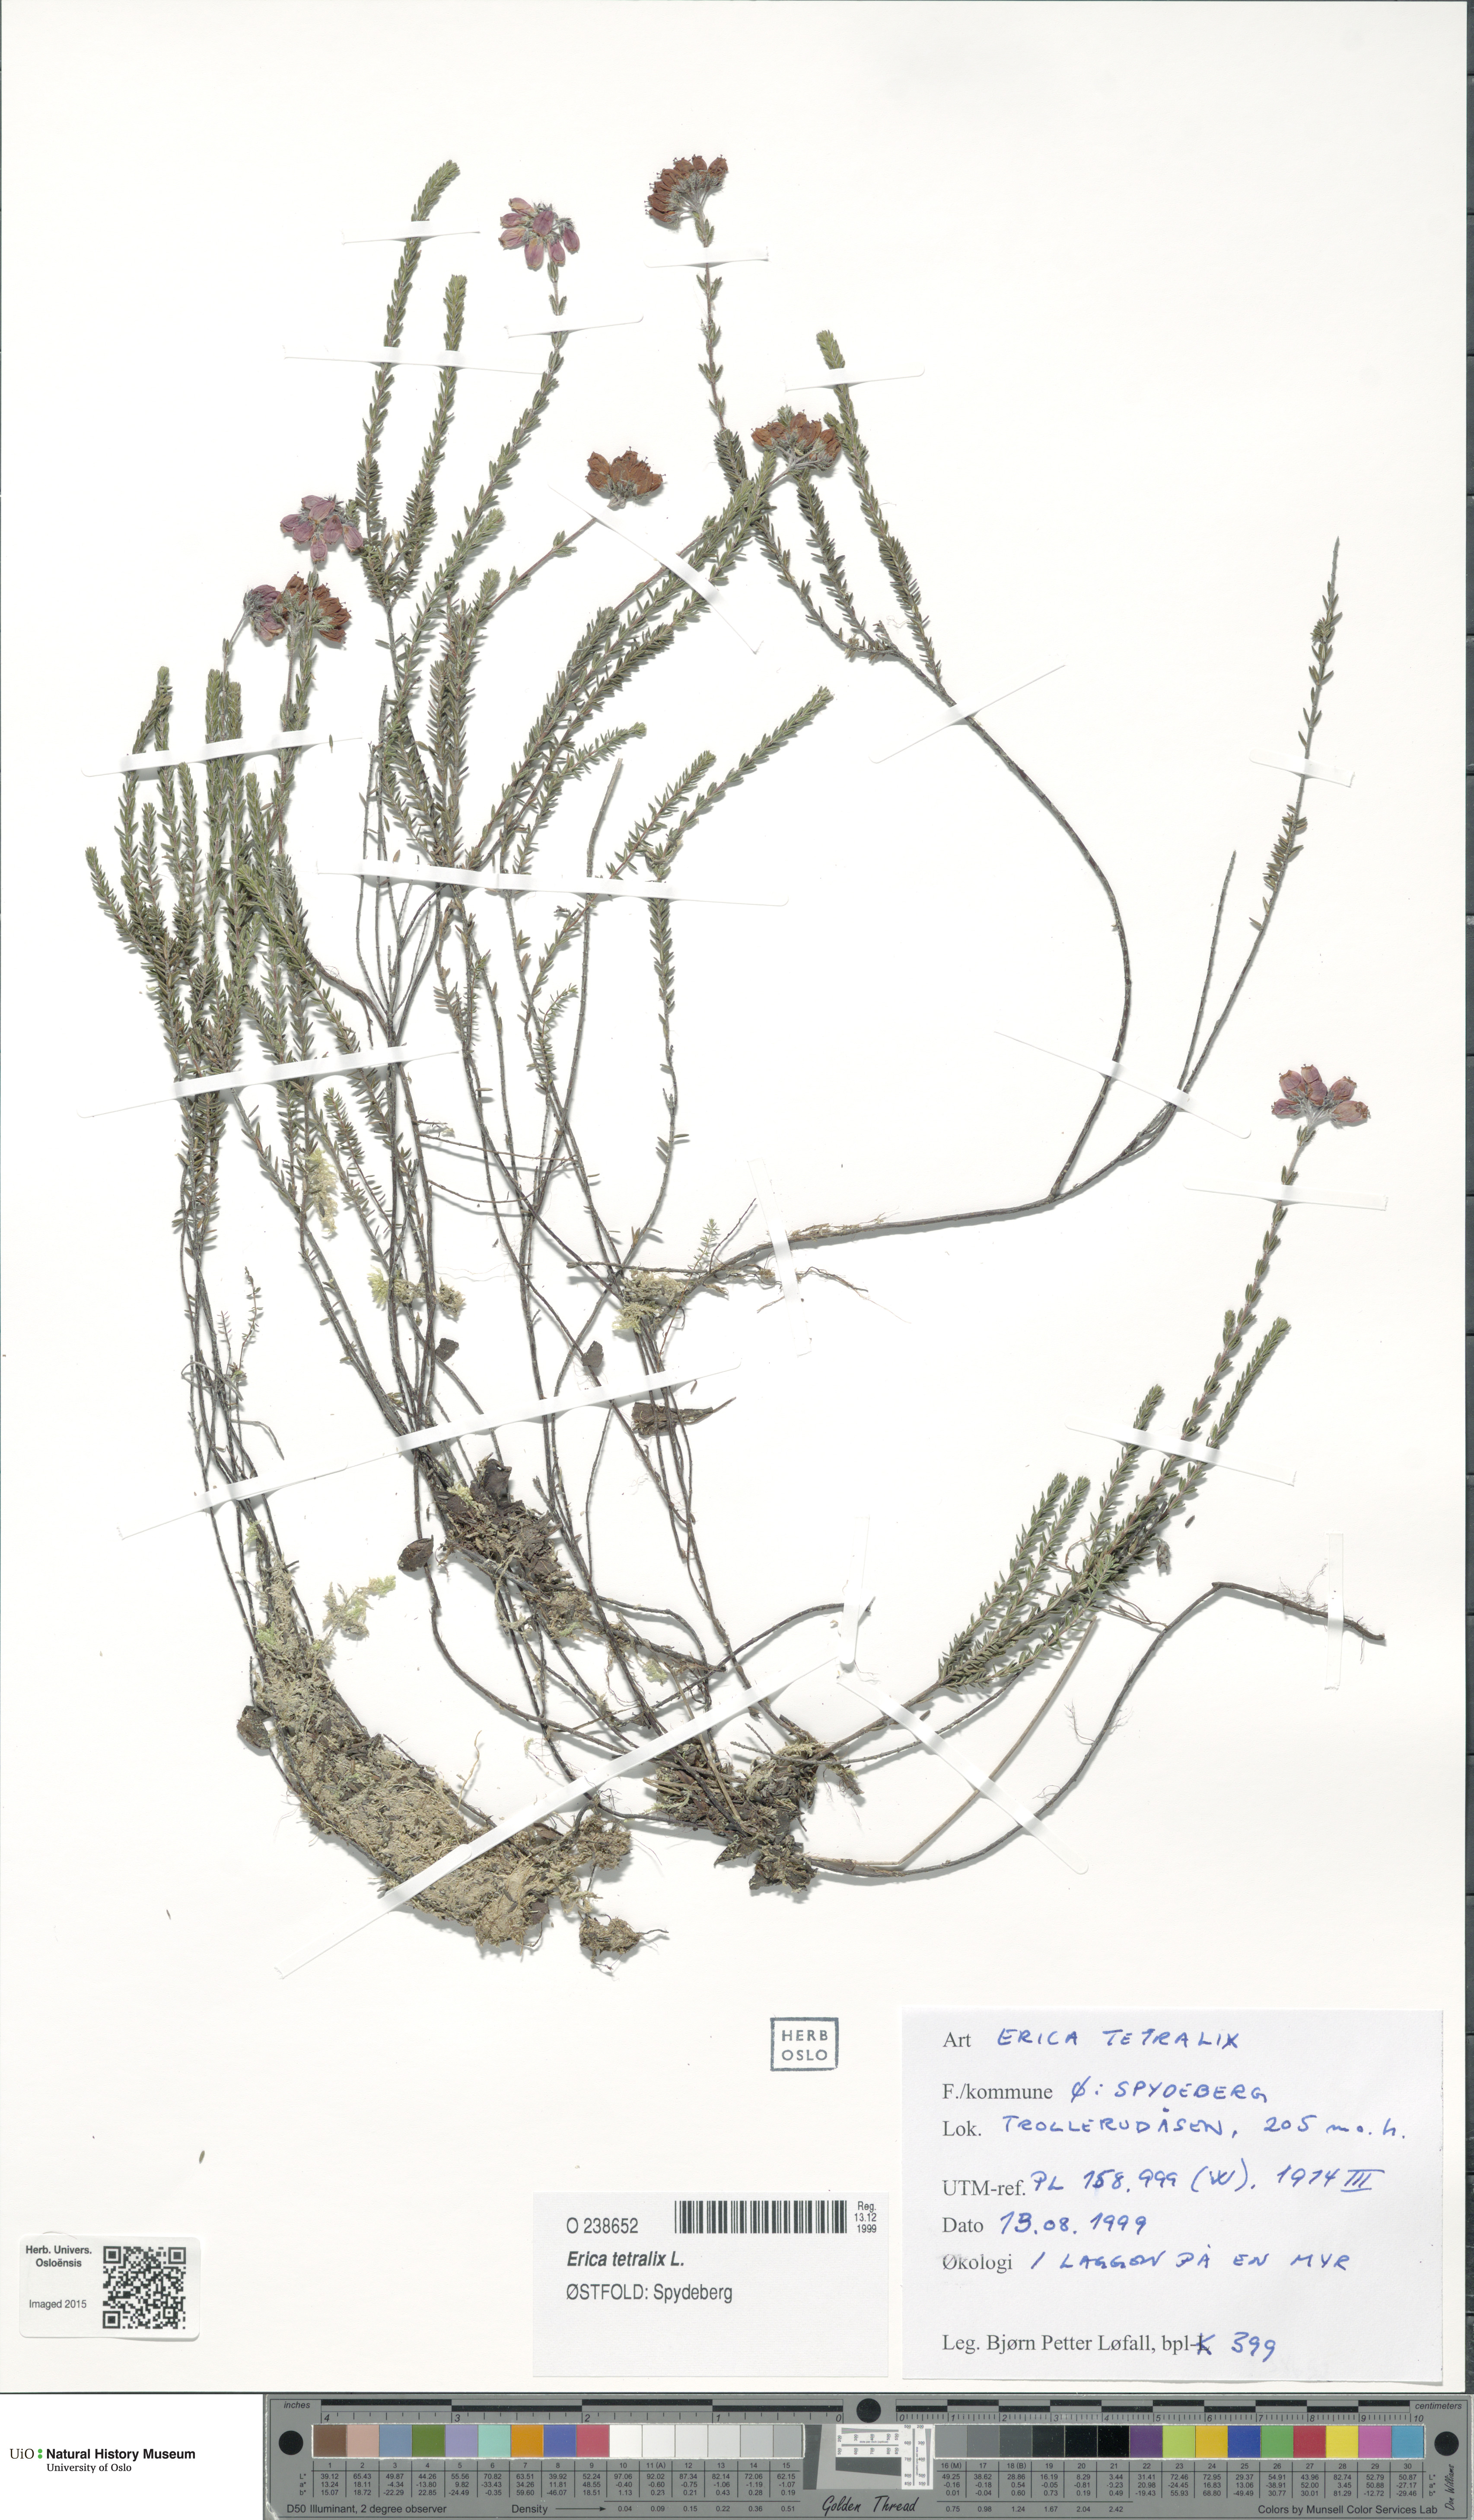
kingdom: Plantae
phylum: Tracheophyta
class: Magnoliopsida
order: Ericales
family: Ericaceae
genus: Erica
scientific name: Erica tetralix
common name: Cross-leaved heath
